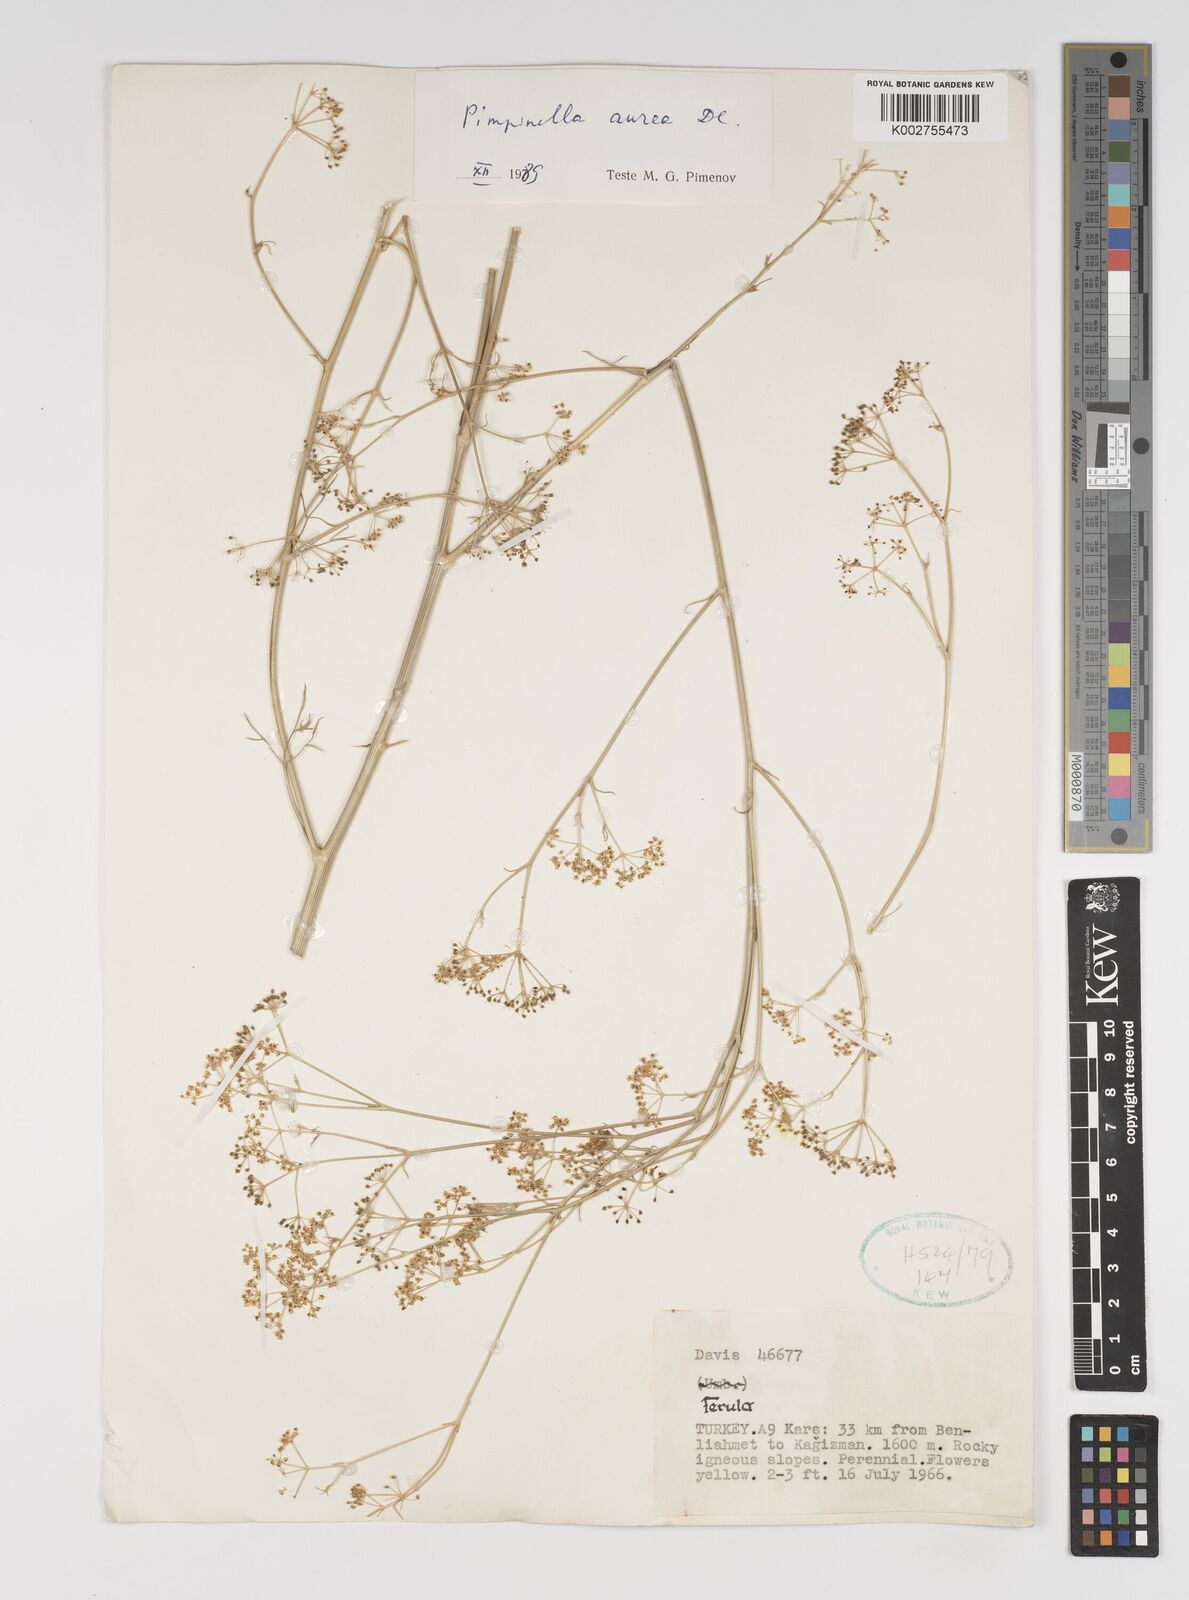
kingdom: Plantae
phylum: Tracheophyta
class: Magnoliopsida
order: Apiales
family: Apiaceae
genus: Pimpinella
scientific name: Pimpinella aurea
